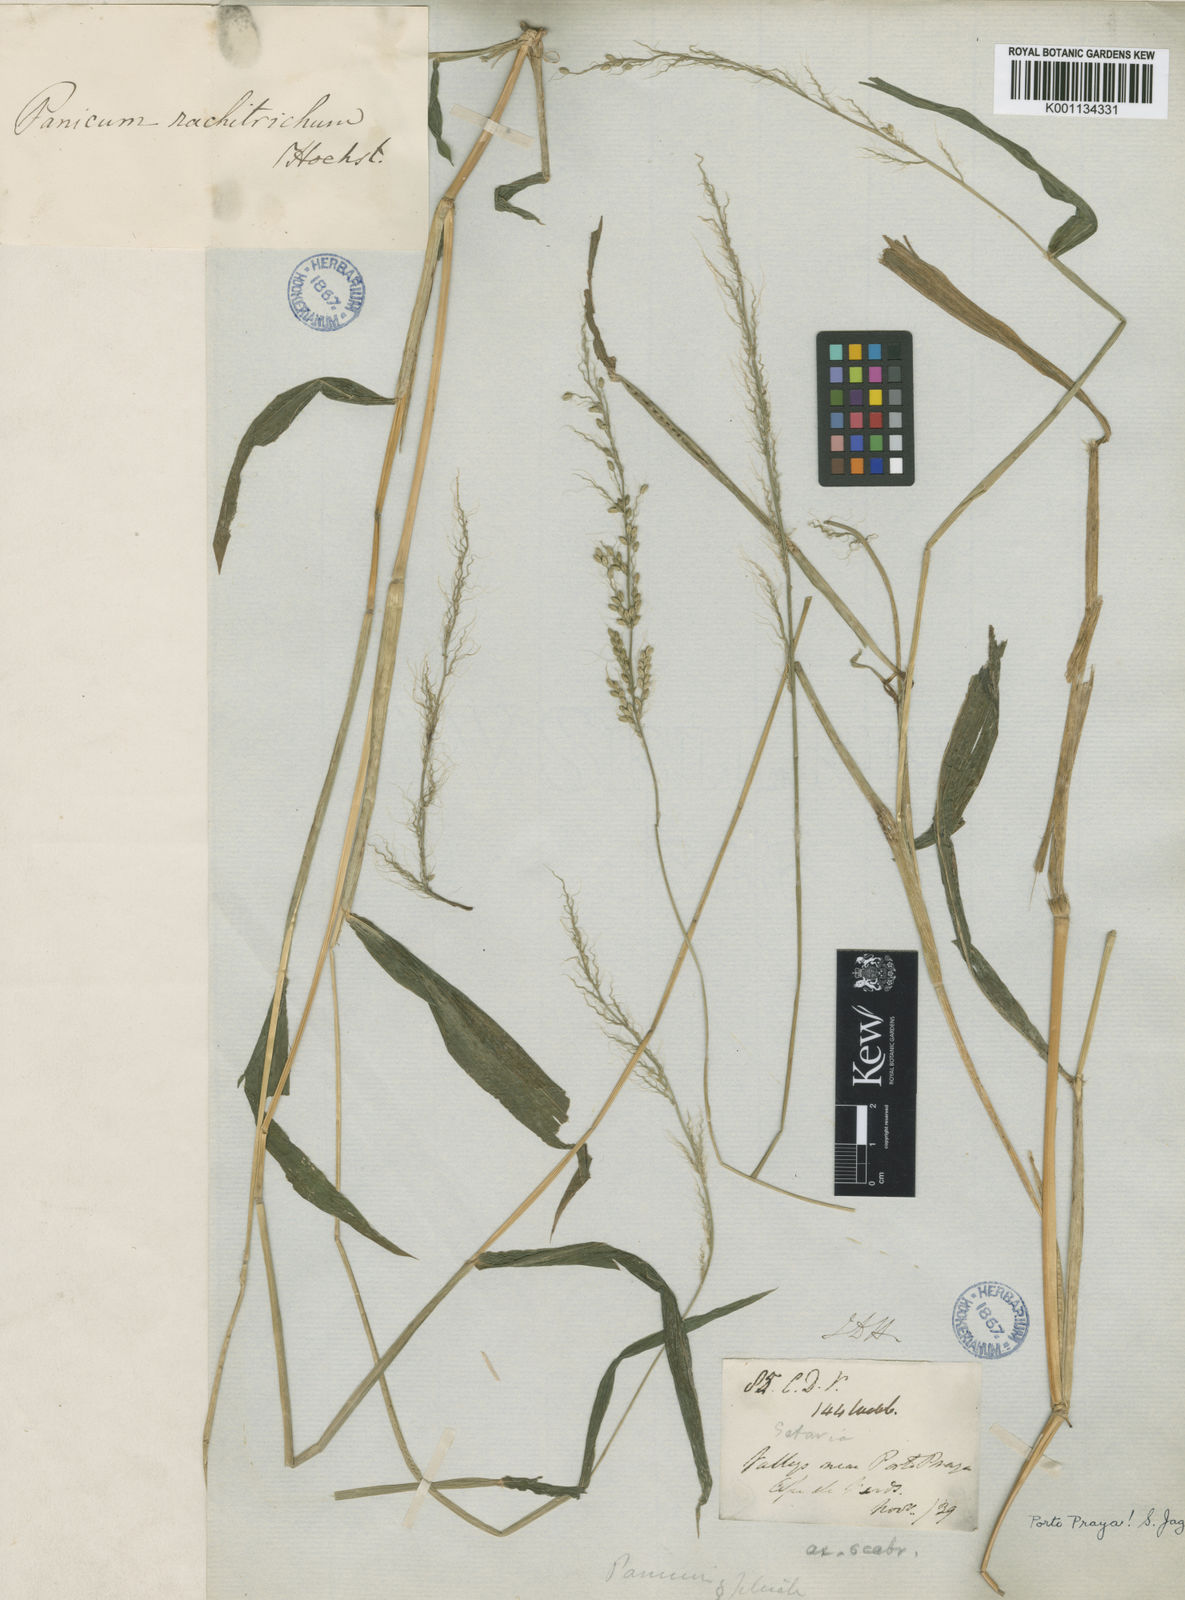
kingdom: Plantae
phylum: Tracheophyta
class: Liliopsida
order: Poales
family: Poaceae
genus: Setaria
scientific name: Setaria barbata
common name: East indian bristlegrass
